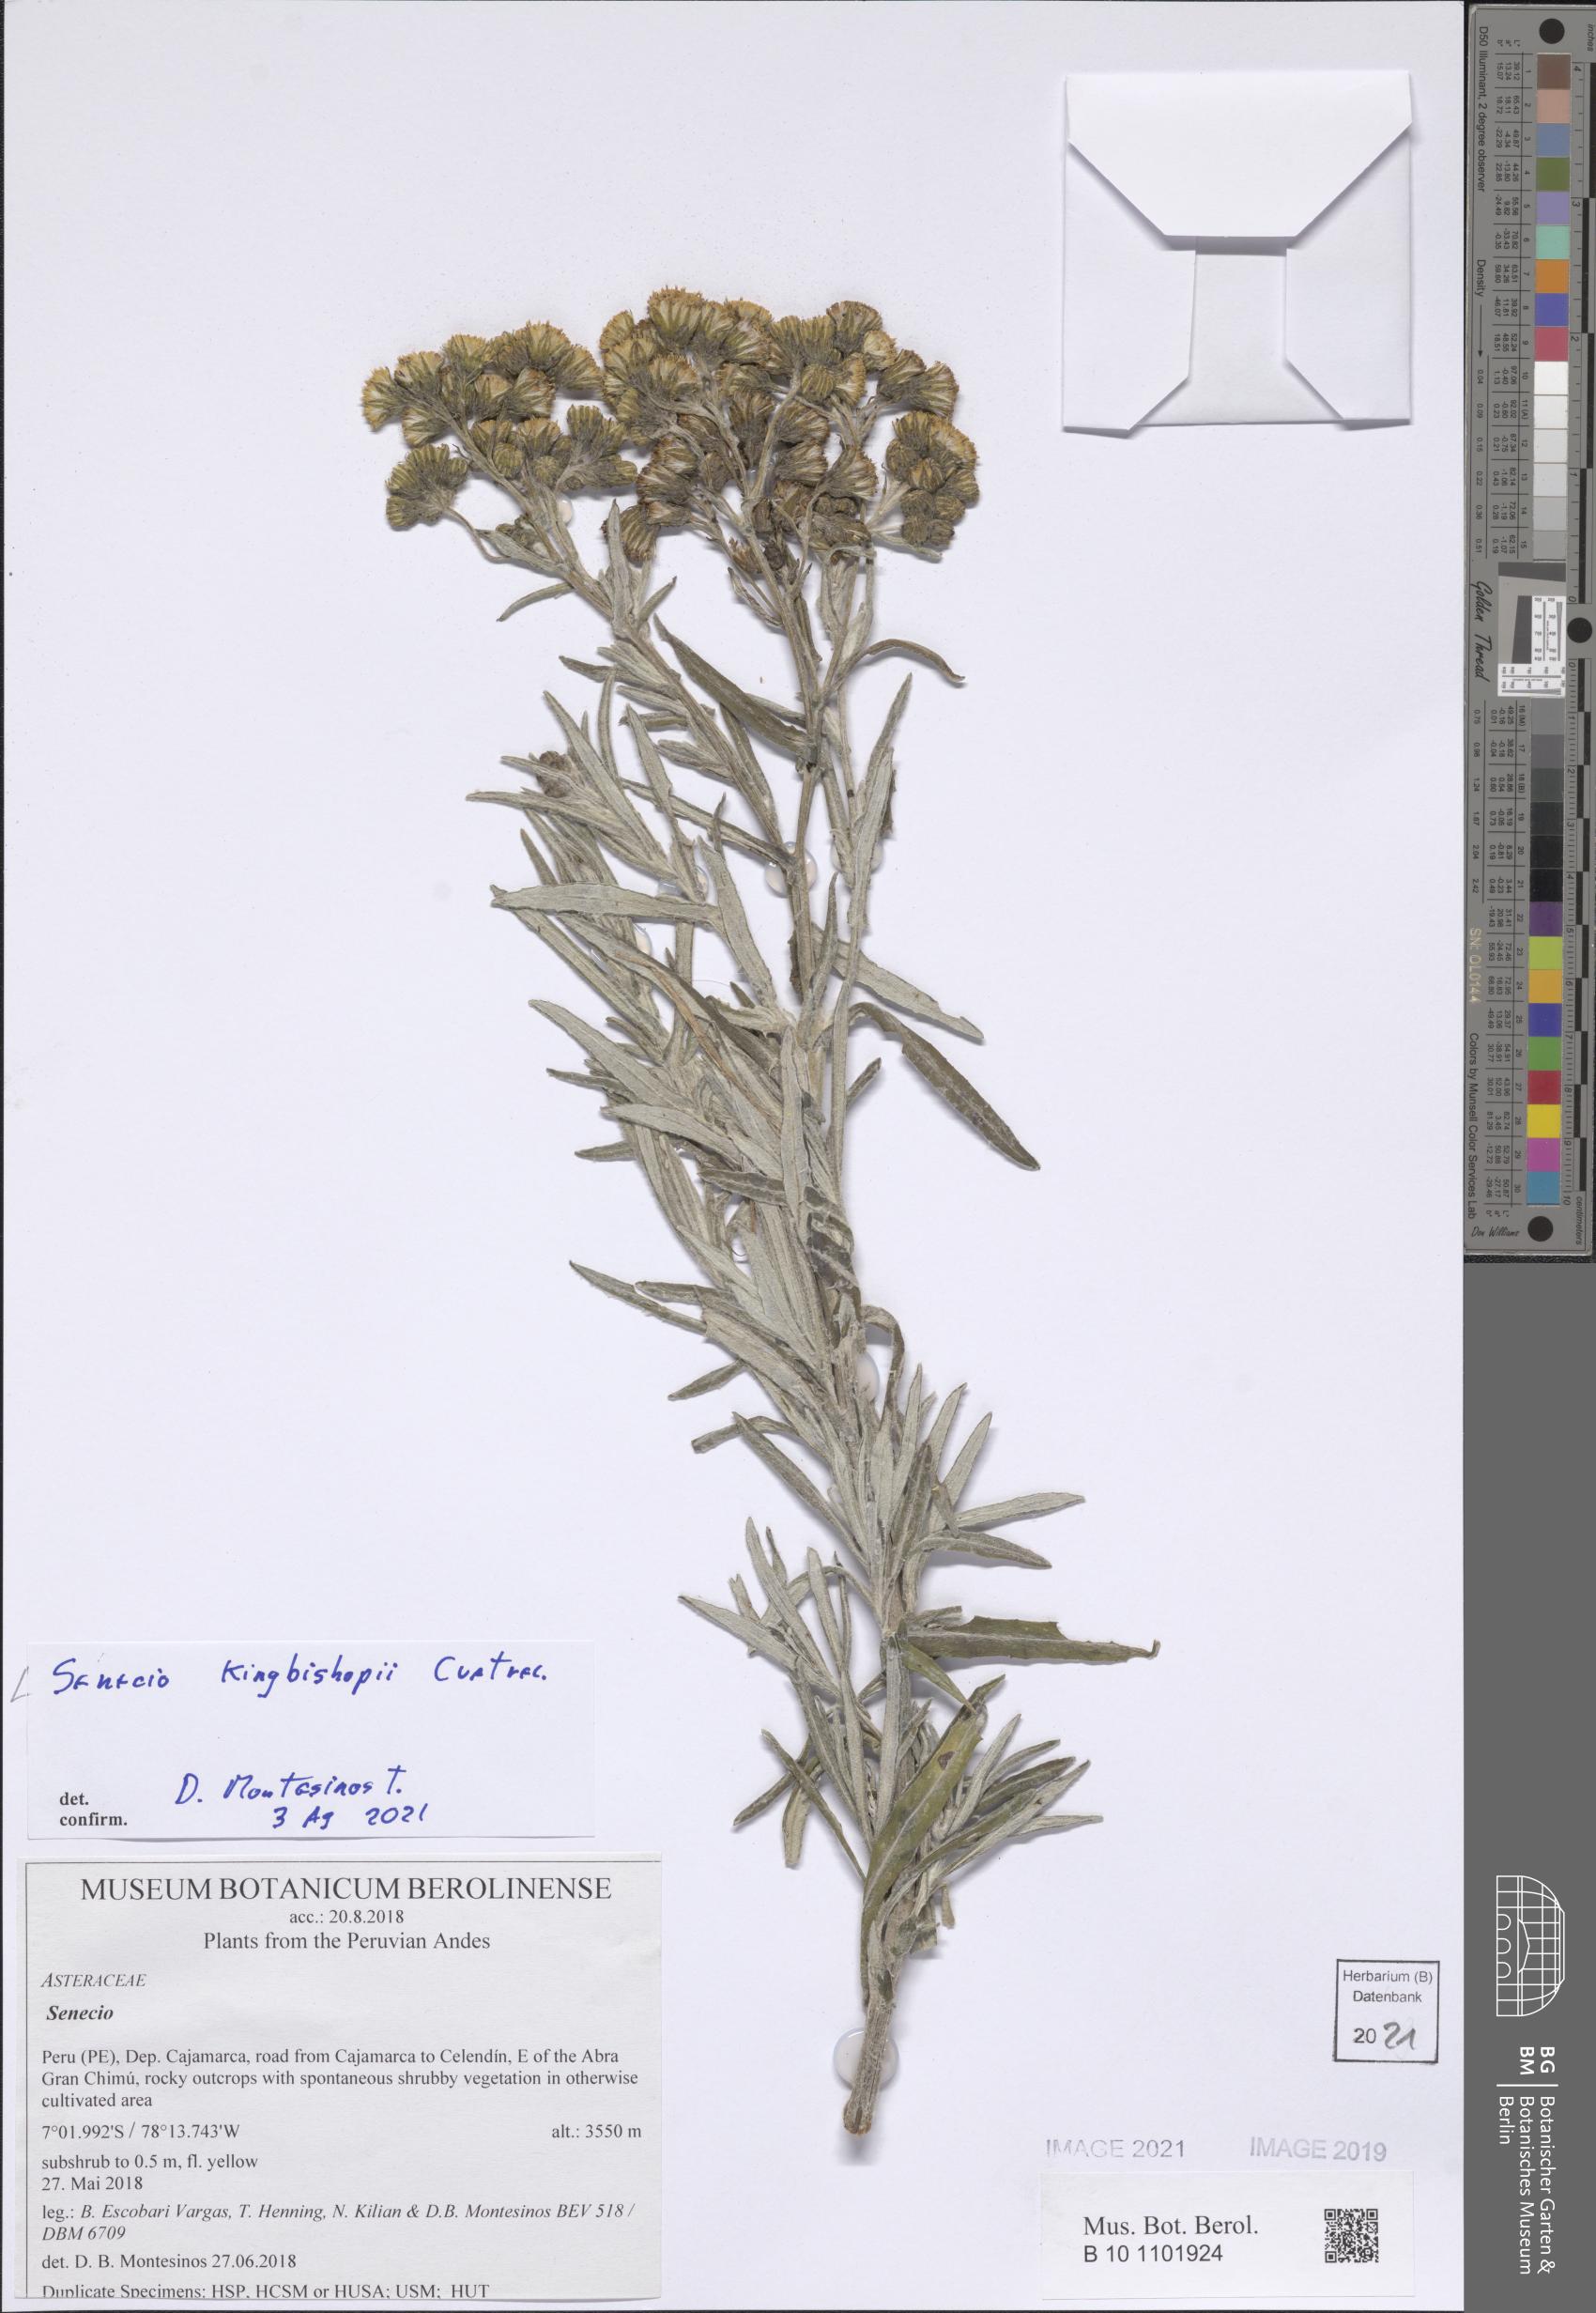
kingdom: Plantae
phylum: Tracheophyta
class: Magnoliopsida
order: Asterales
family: Asteraceae
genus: Senecio
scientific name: Senecio kingbishopii
